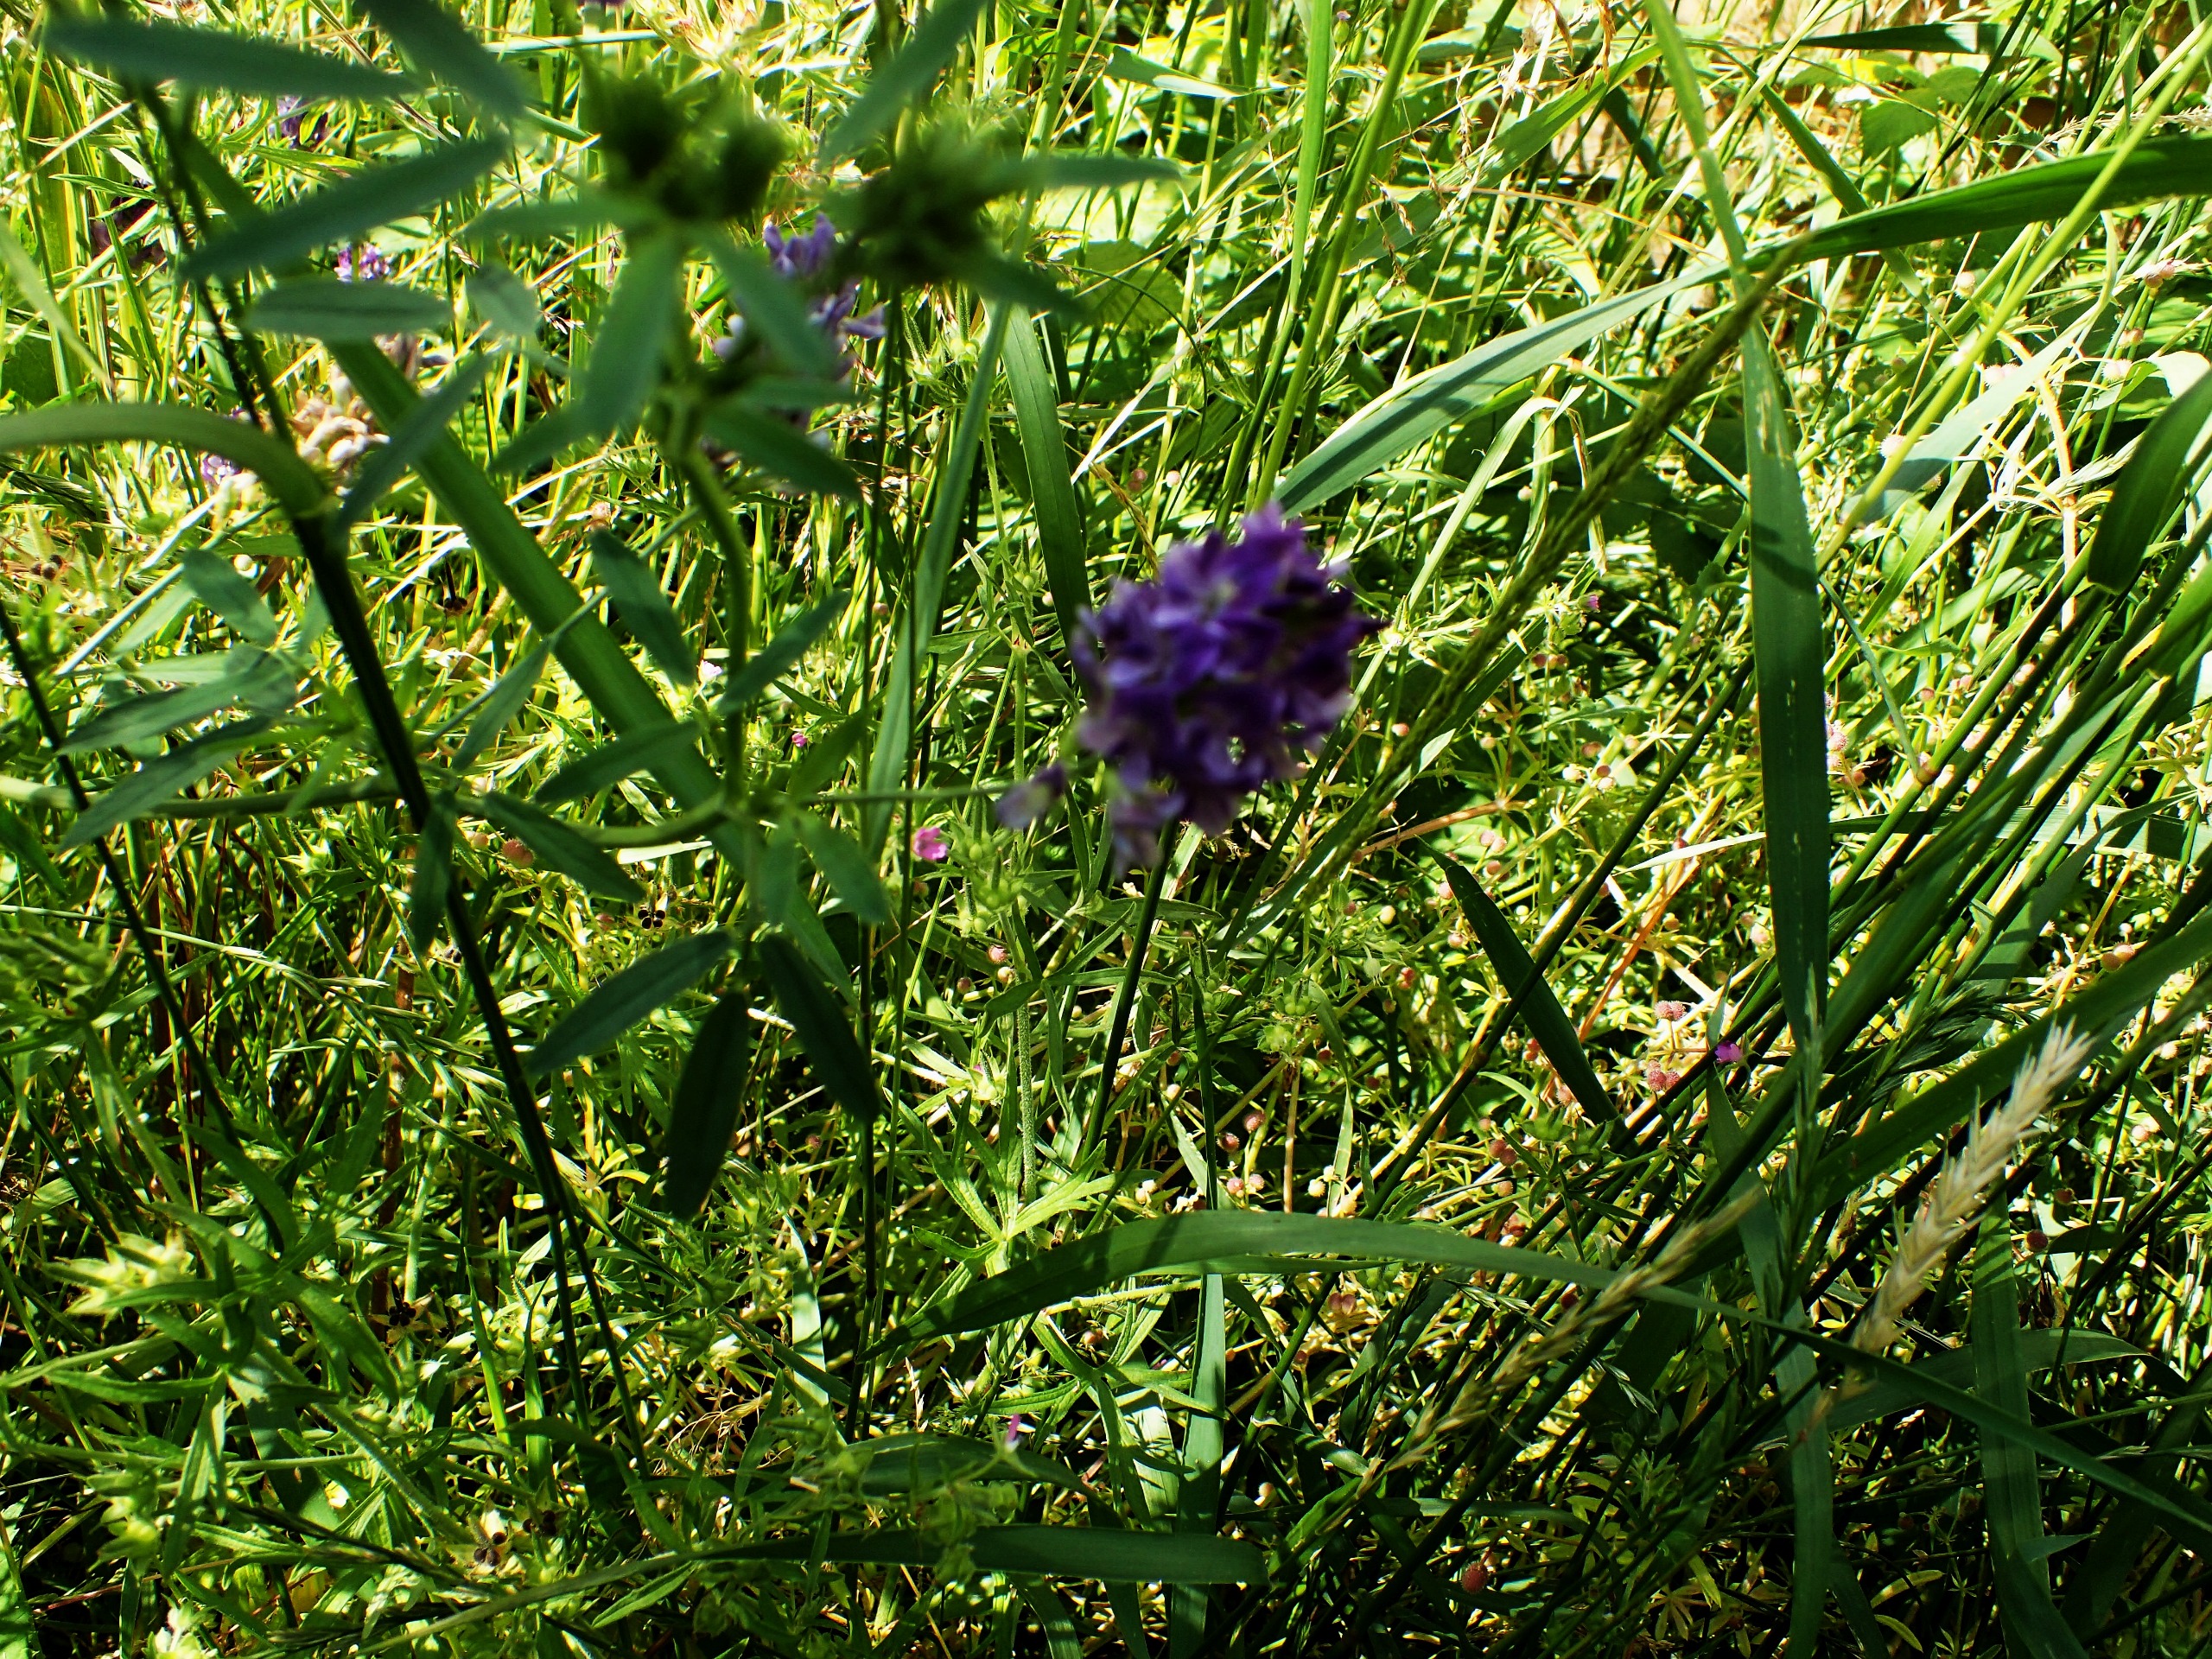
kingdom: Plantae
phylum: Tracheophyta
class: Magnoliopsida
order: Fabales
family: Fabaceae
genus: Medicago
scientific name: Medicago sativa
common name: Lucerne
